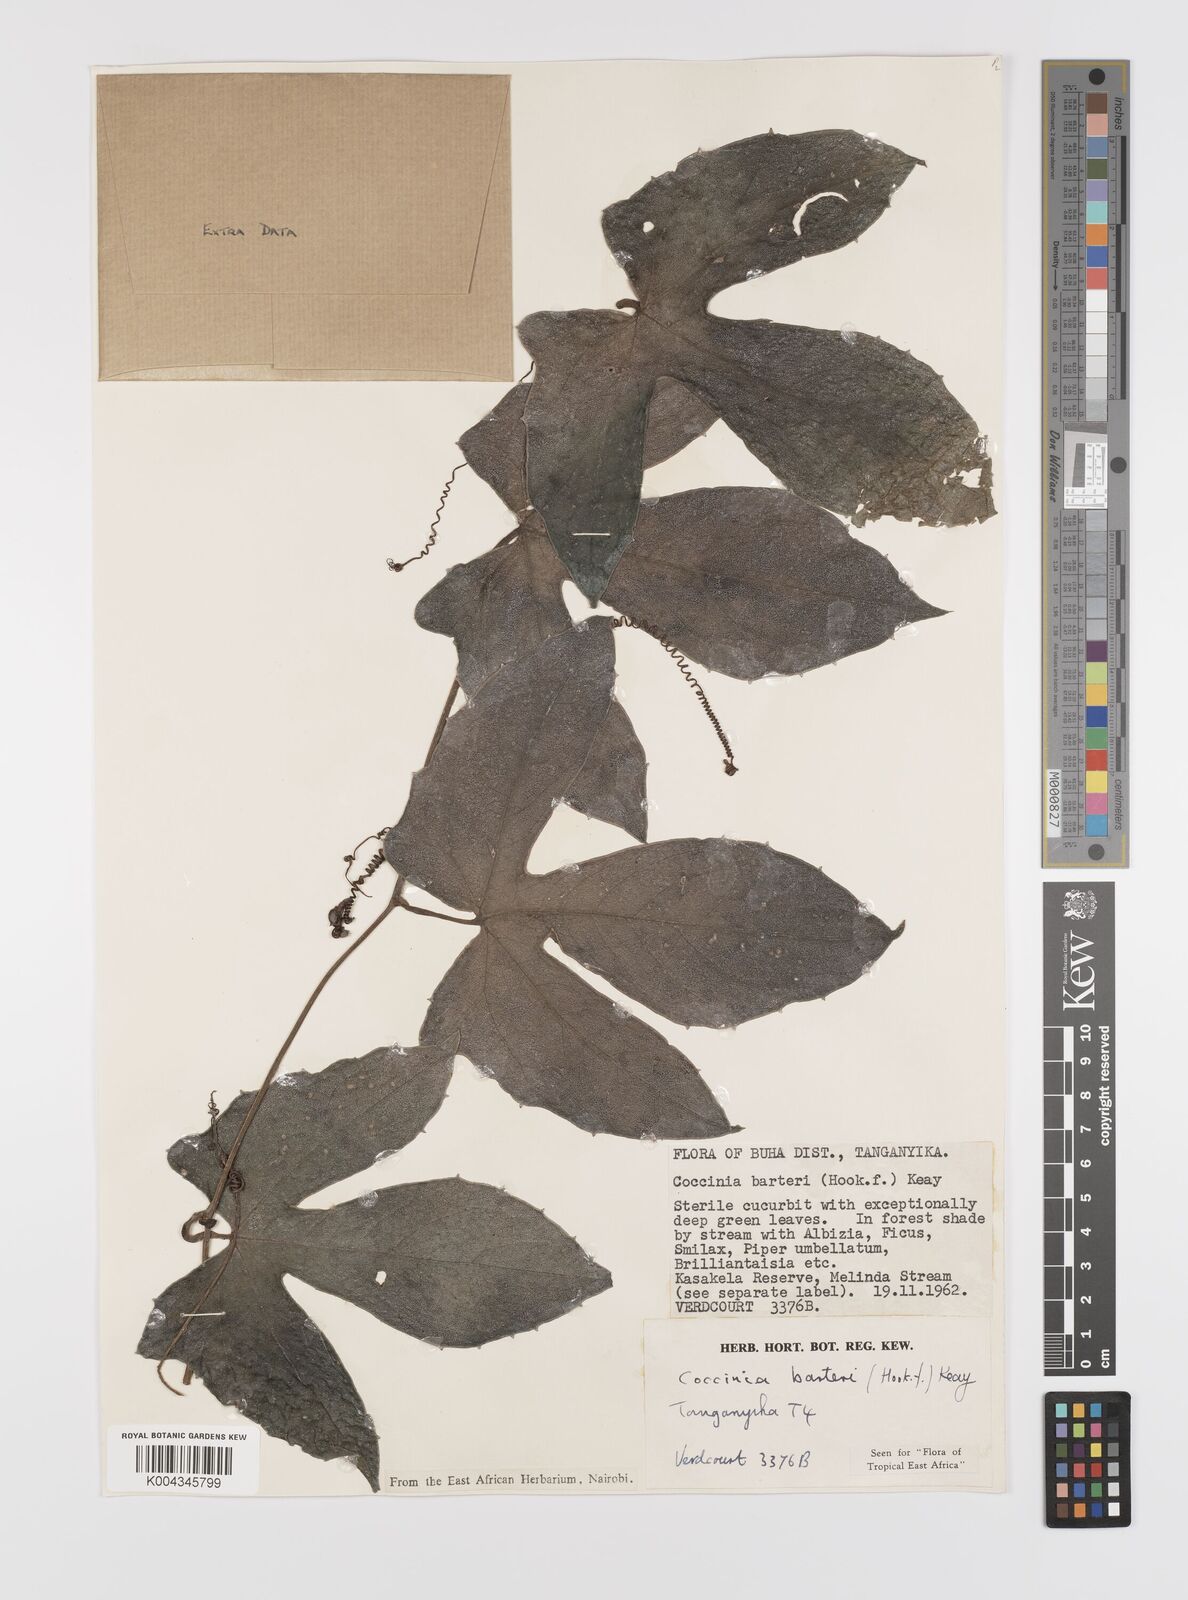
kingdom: Plantae
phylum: Tracheophyta
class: Magnoliopsida
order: Cucurbitales
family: Cucurbitaceae
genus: Coccinia
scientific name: Coccinia barteri
